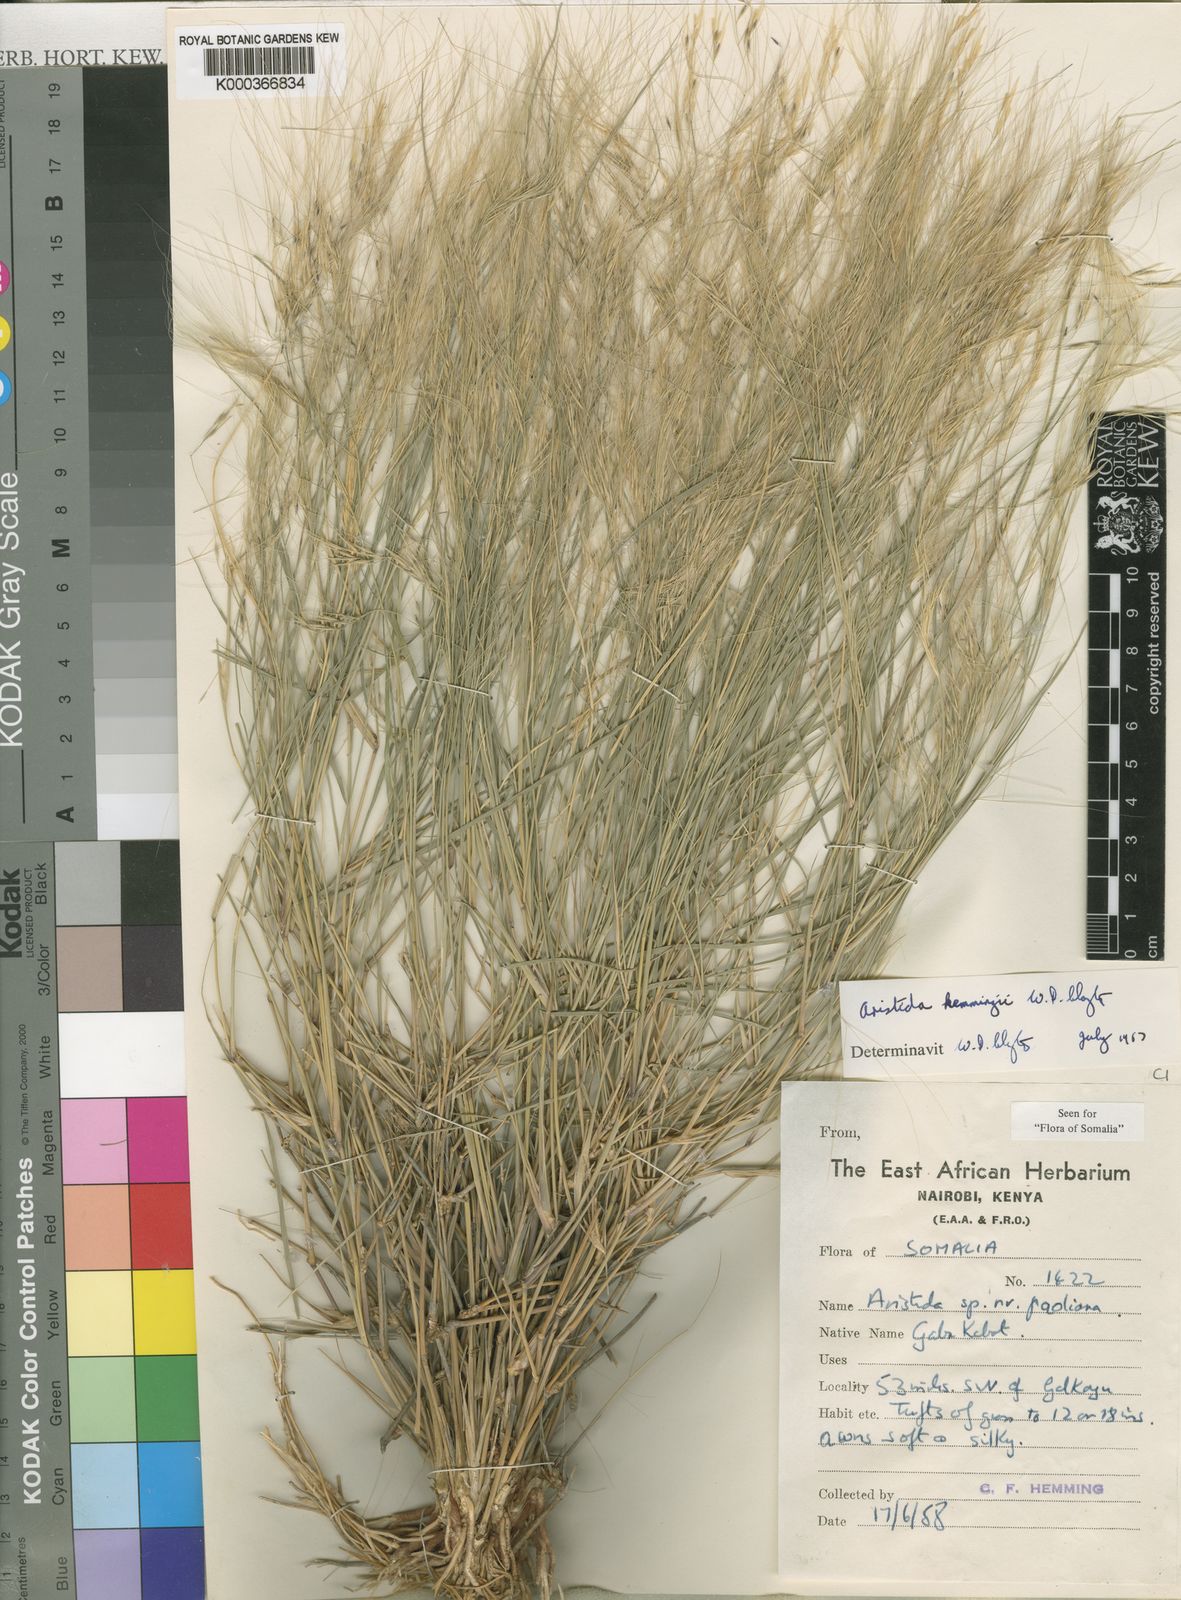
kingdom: Plantae
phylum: Tracheophyta
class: Liliopsida
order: Poales
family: Poaceae
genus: Aristida
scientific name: Aristida paoliana
